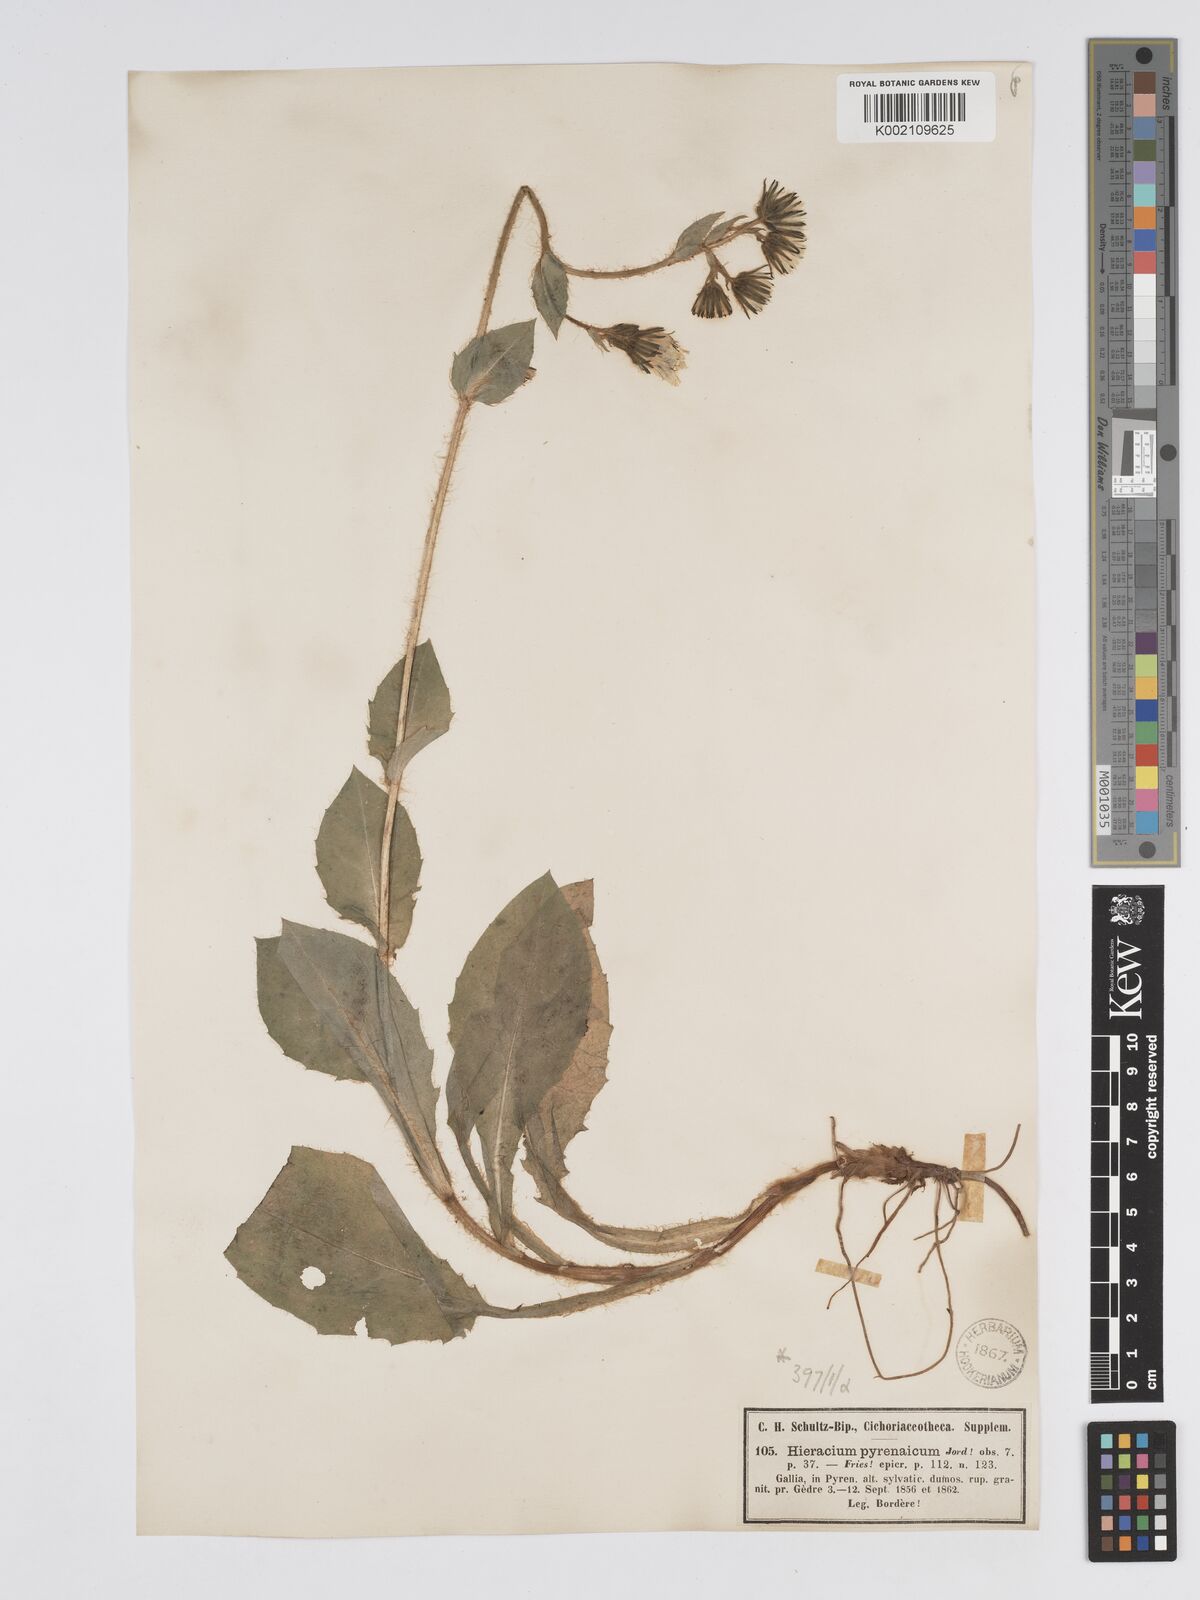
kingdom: Plantae
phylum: Tracheophyta
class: Magnoliopsida
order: Asterales
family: Asteraceae
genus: Hieracium
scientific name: Hieracium nobile
